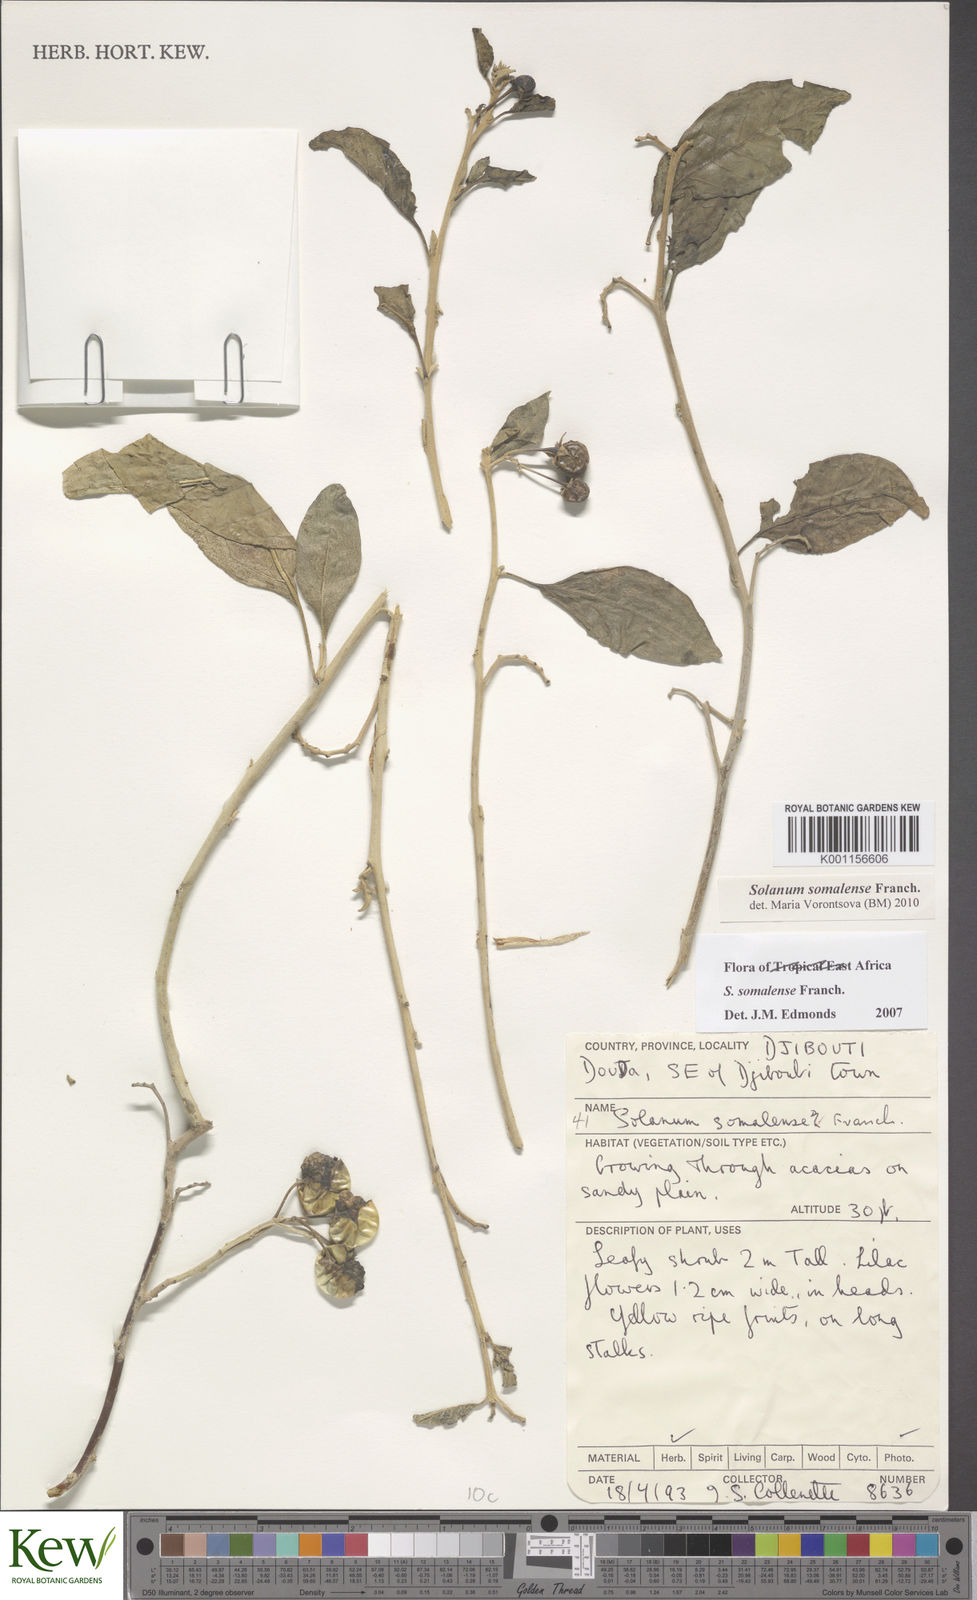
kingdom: Plantae
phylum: Tracheophyta
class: Magnoliopsida
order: Solanales
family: Solanaceae
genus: Solanum
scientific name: Solanum somalense
